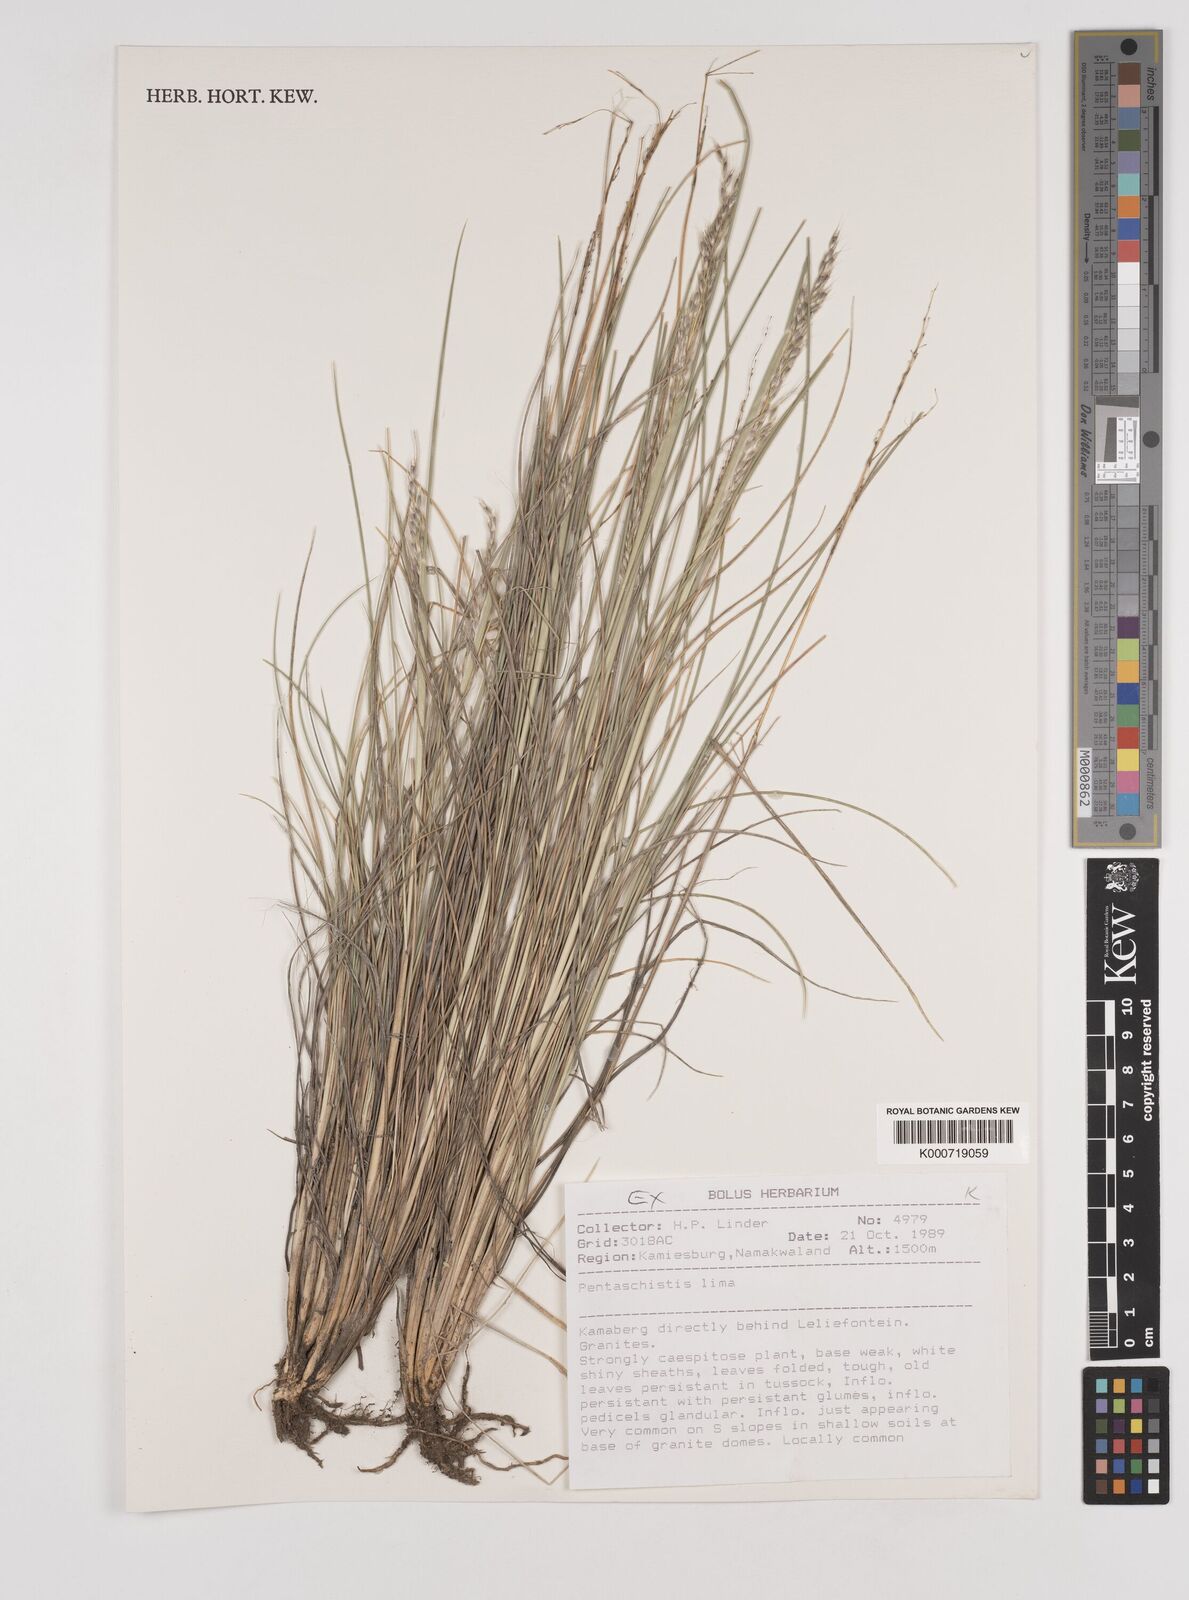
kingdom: Plantae
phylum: Tracheophyta
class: Liliopsida
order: Poales
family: Poaceae
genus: Pentaschistis
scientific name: Pentaschistis
